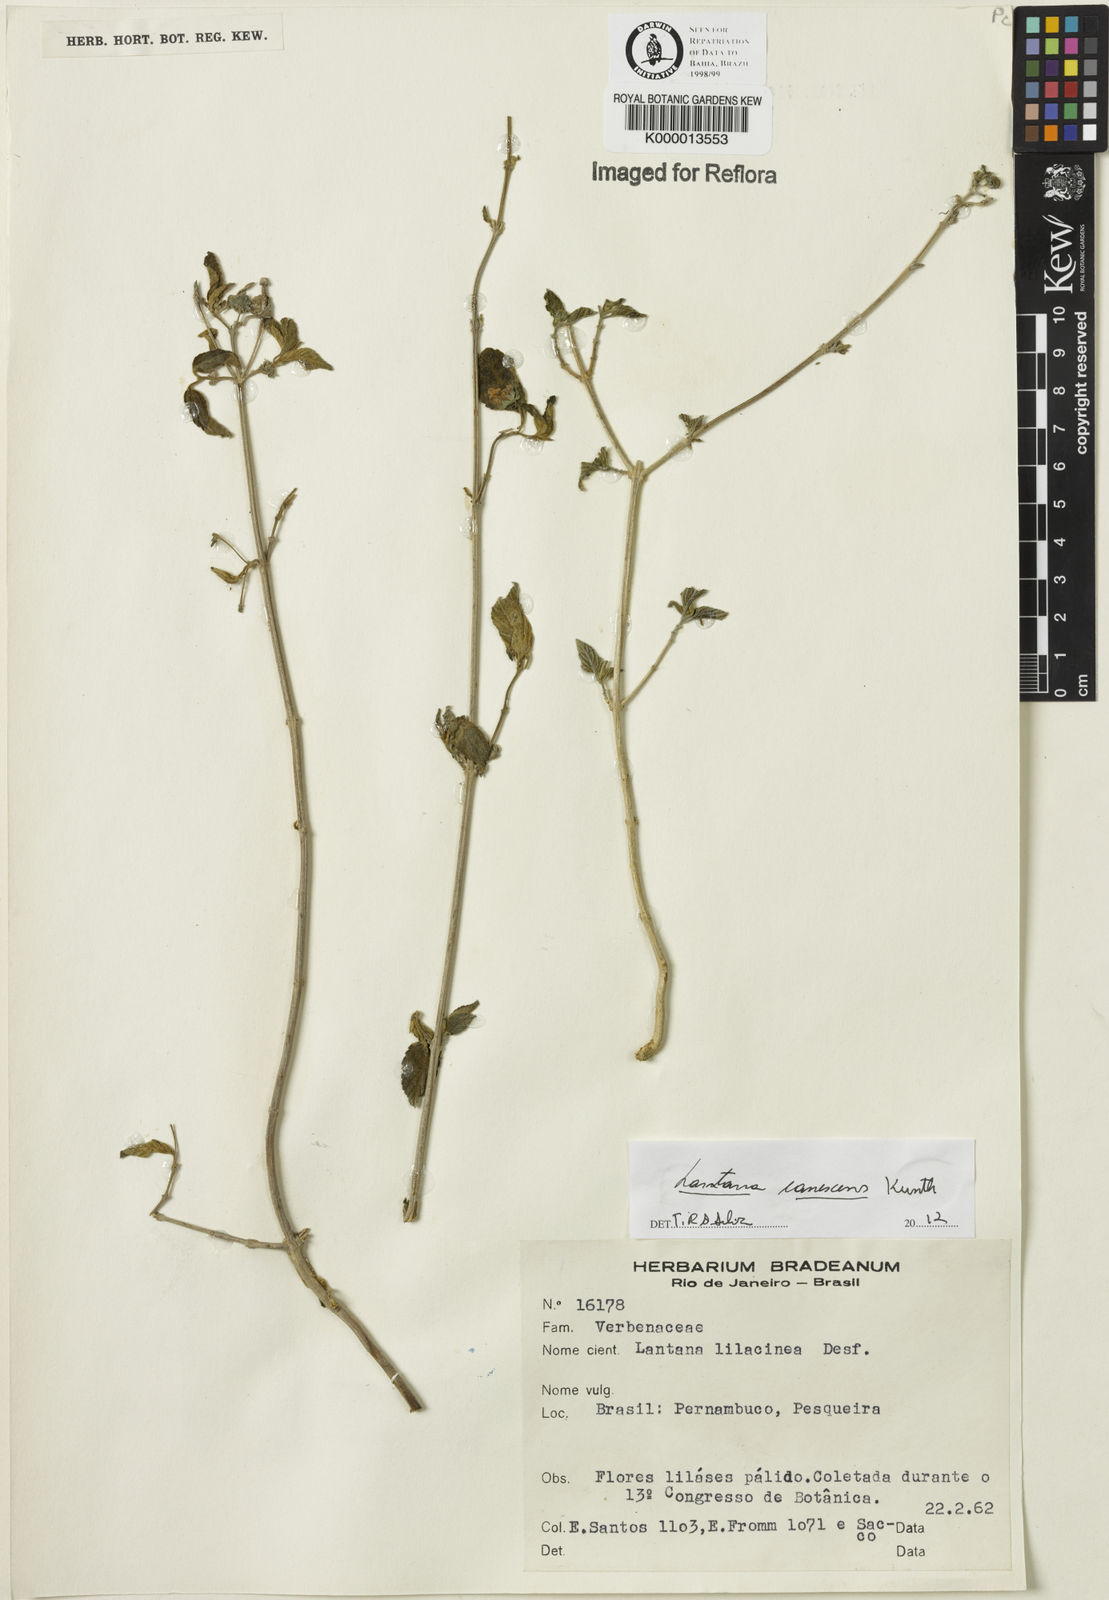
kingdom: Plantae
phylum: Tracheophyta
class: Magnoliopsida
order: Lamiales
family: Verbenaceae
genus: Lantana
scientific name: Lantana canescens
